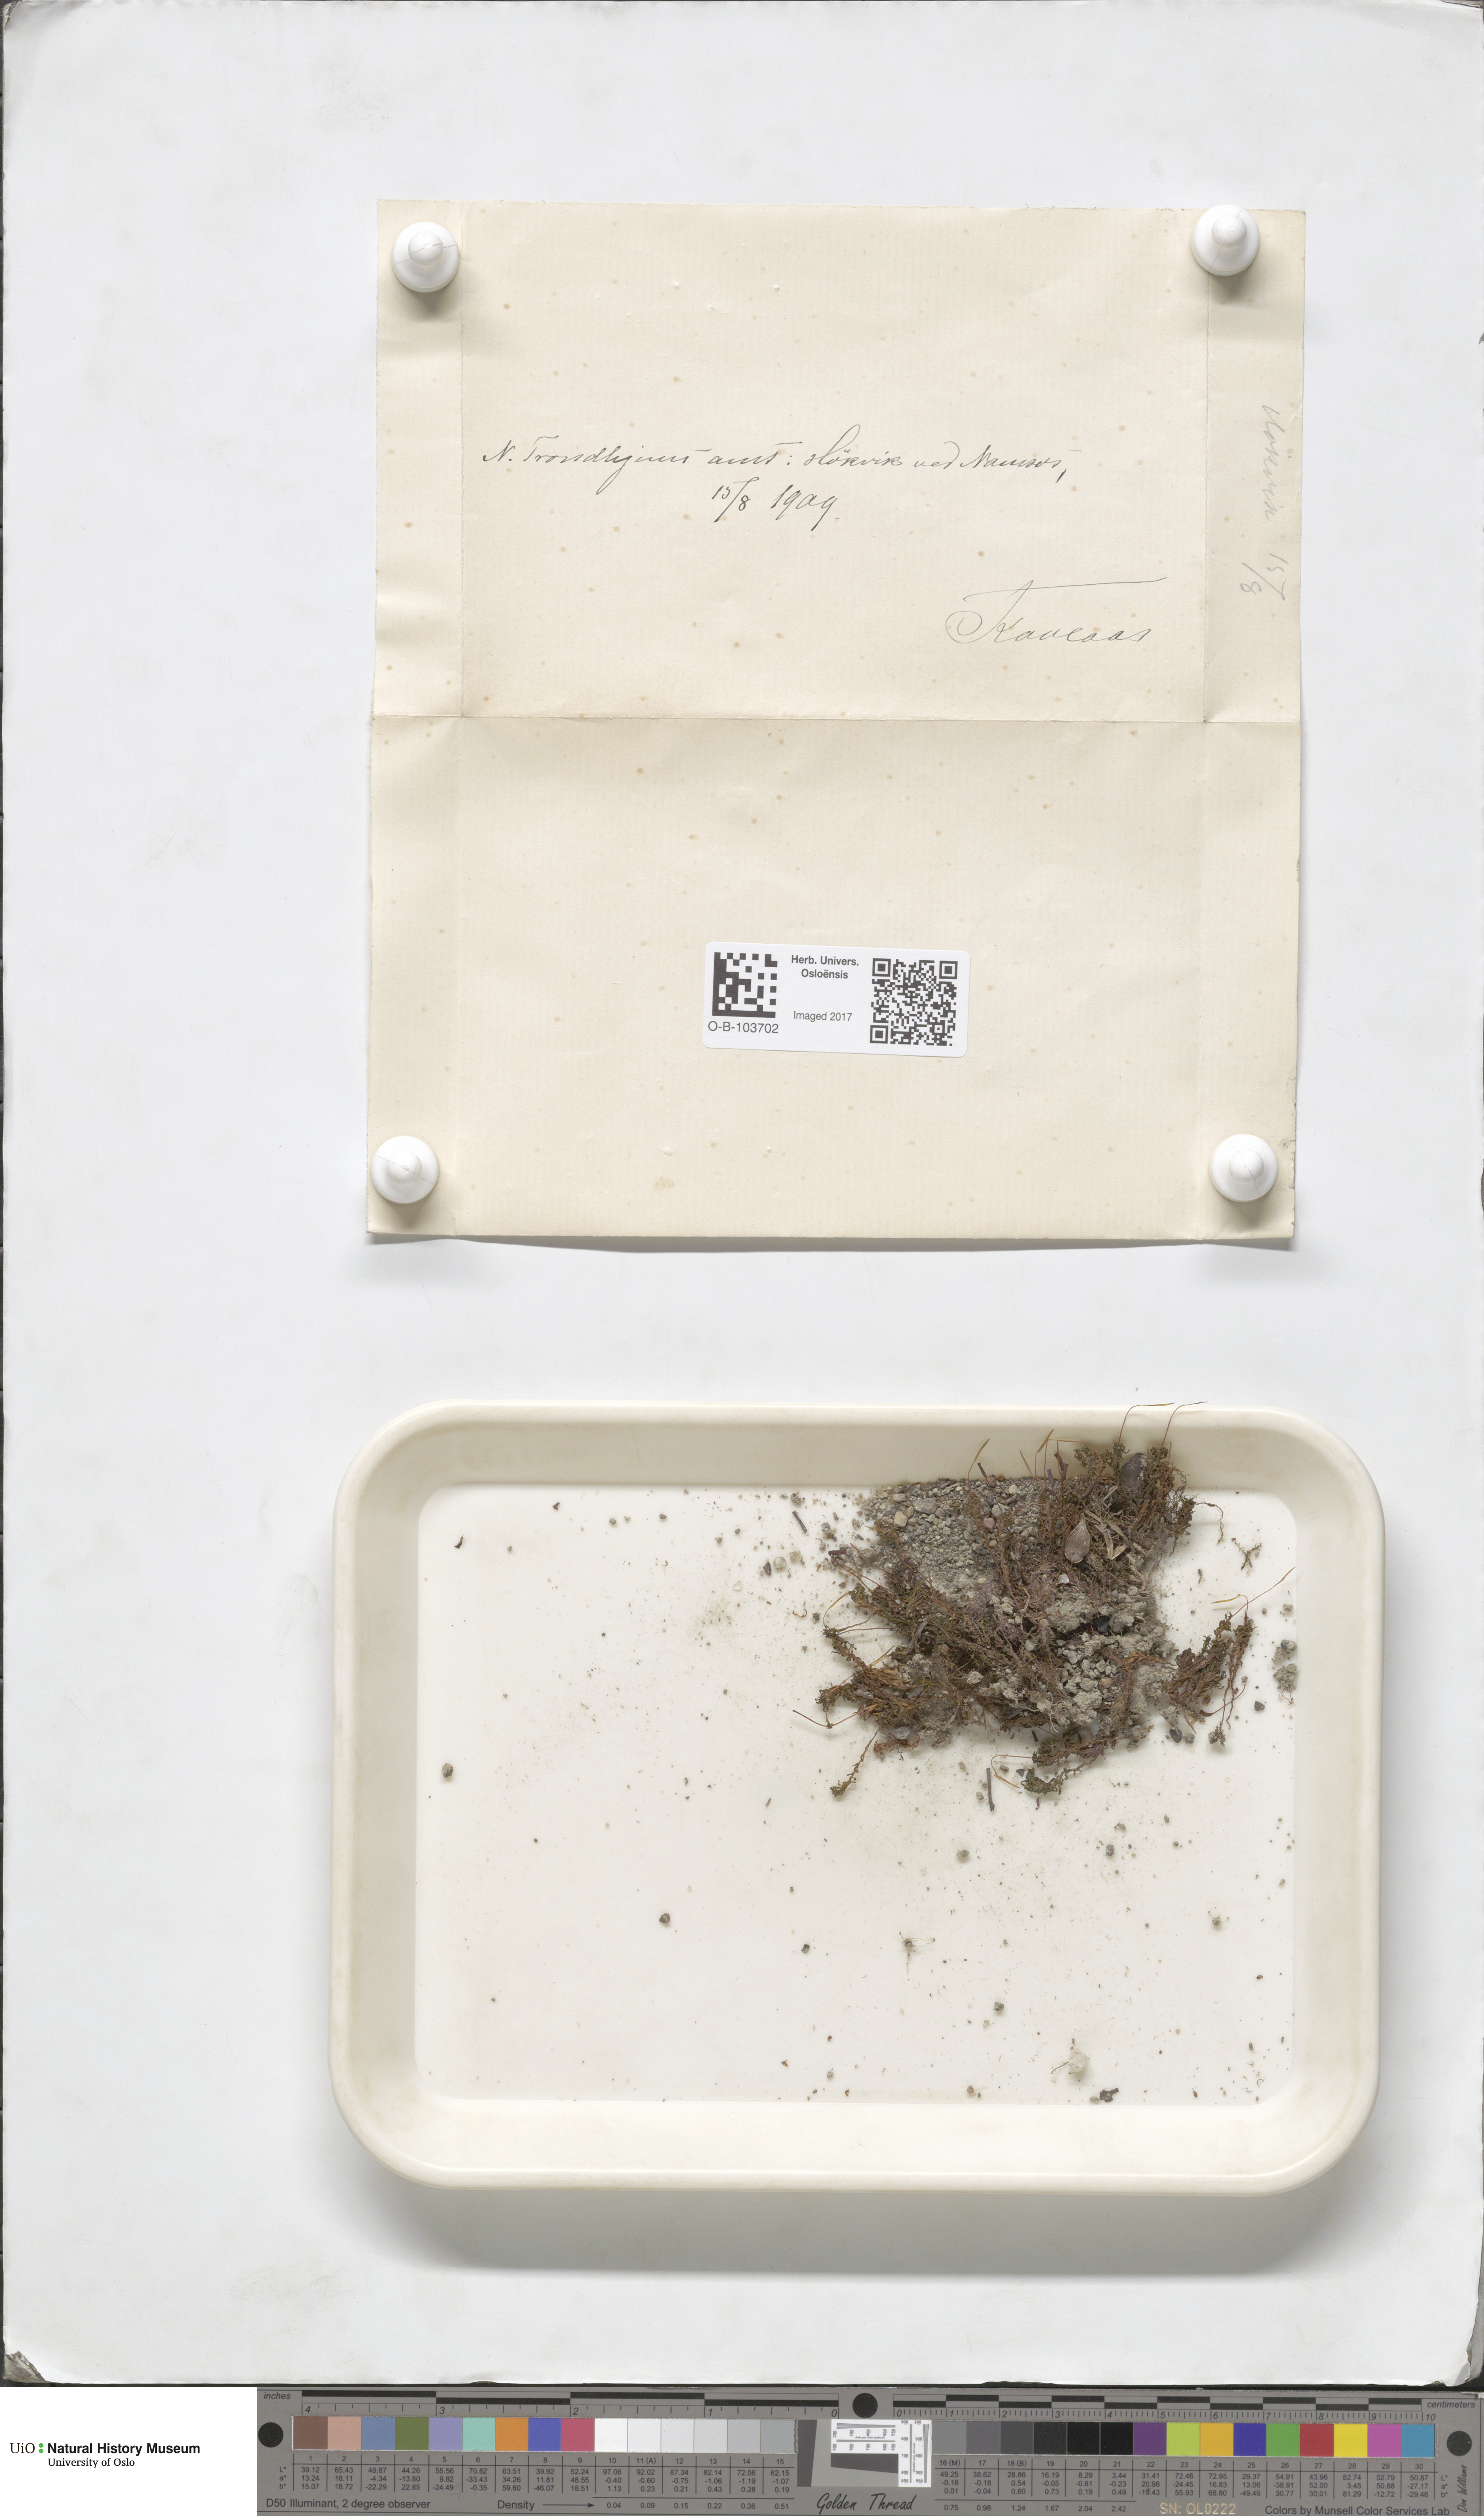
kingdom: Plantae
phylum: Bryophyta
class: Polytrichopsida
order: Polytrichales
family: Polytrichaceae
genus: Atrichum
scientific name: Atrichum undulatum
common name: Common smoothcap
